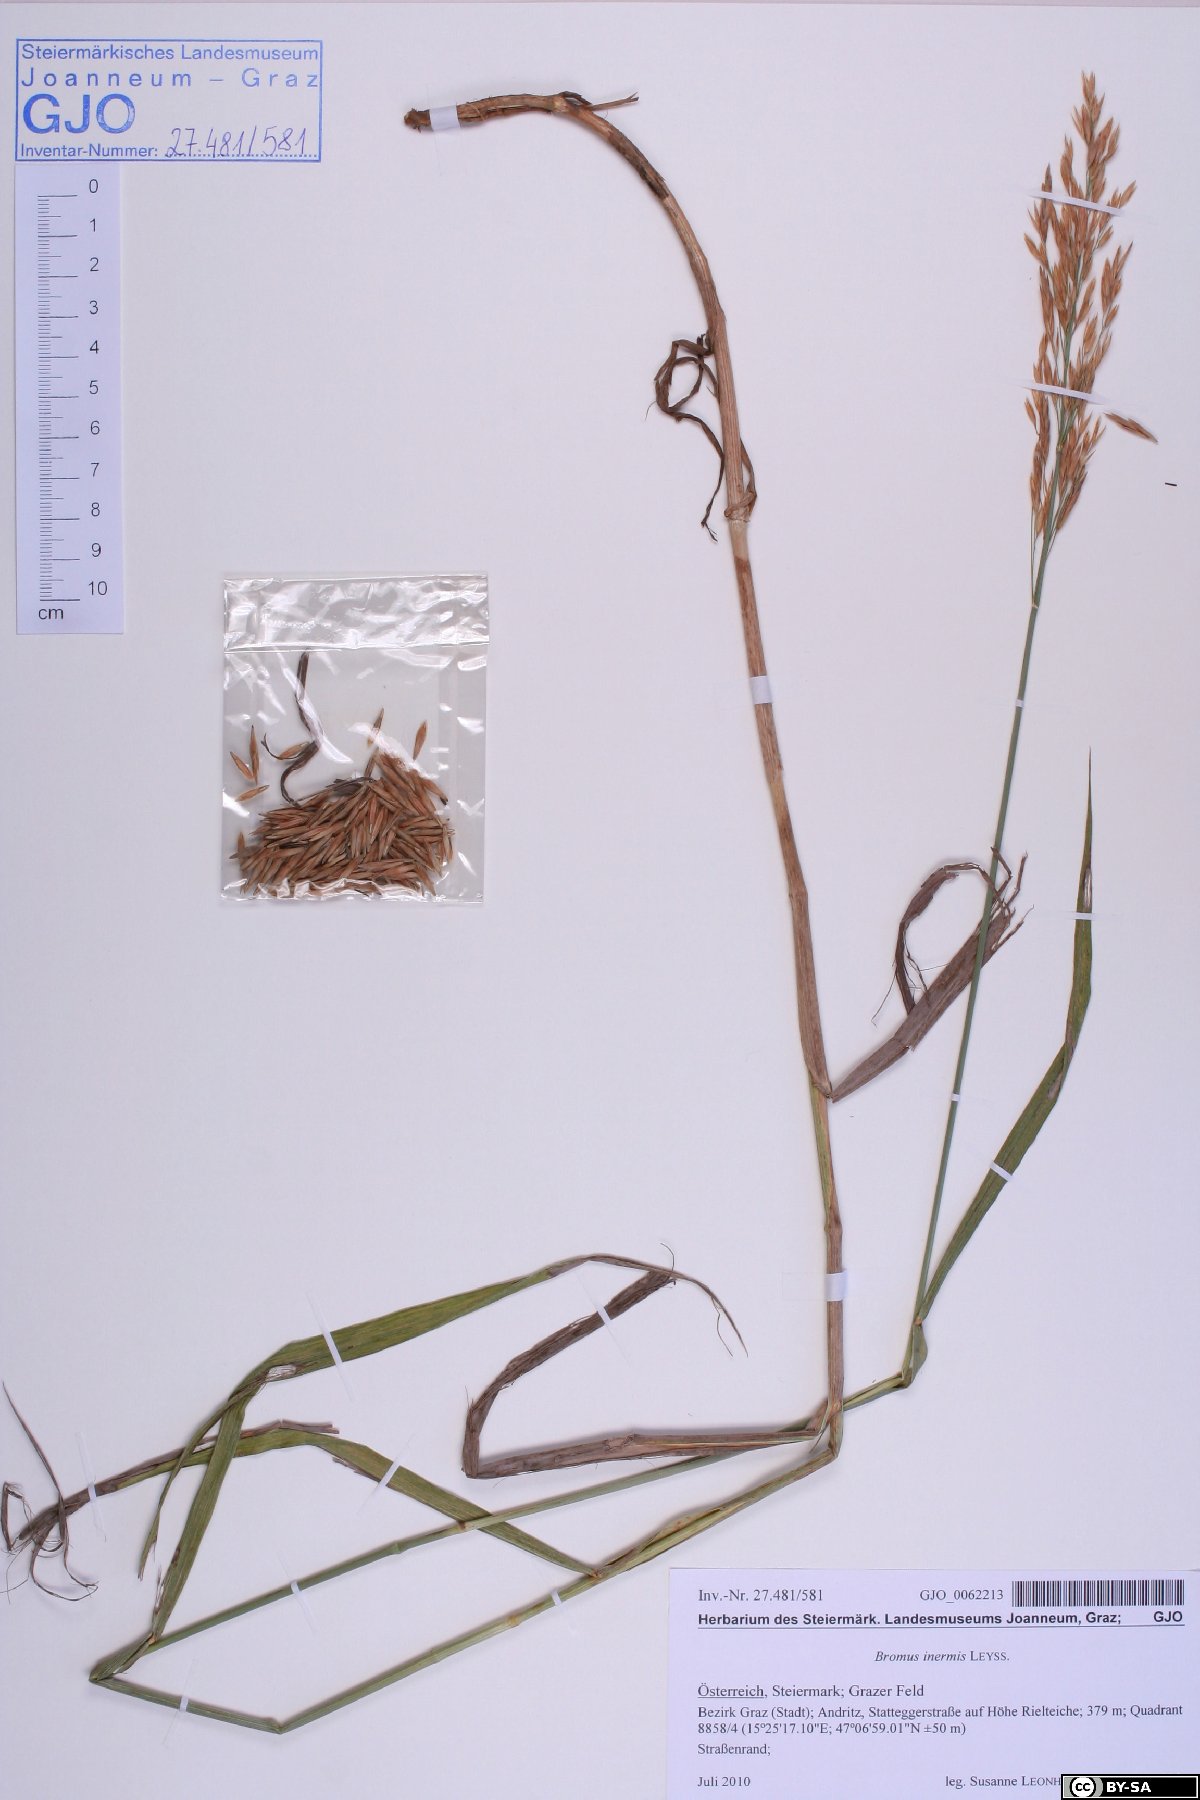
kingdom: Plantae
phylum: Tracheophyta
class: Liliopsida
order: Poales
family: Poaceae
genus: Bromus
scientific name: Bromus inermis
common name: Smooth brome
